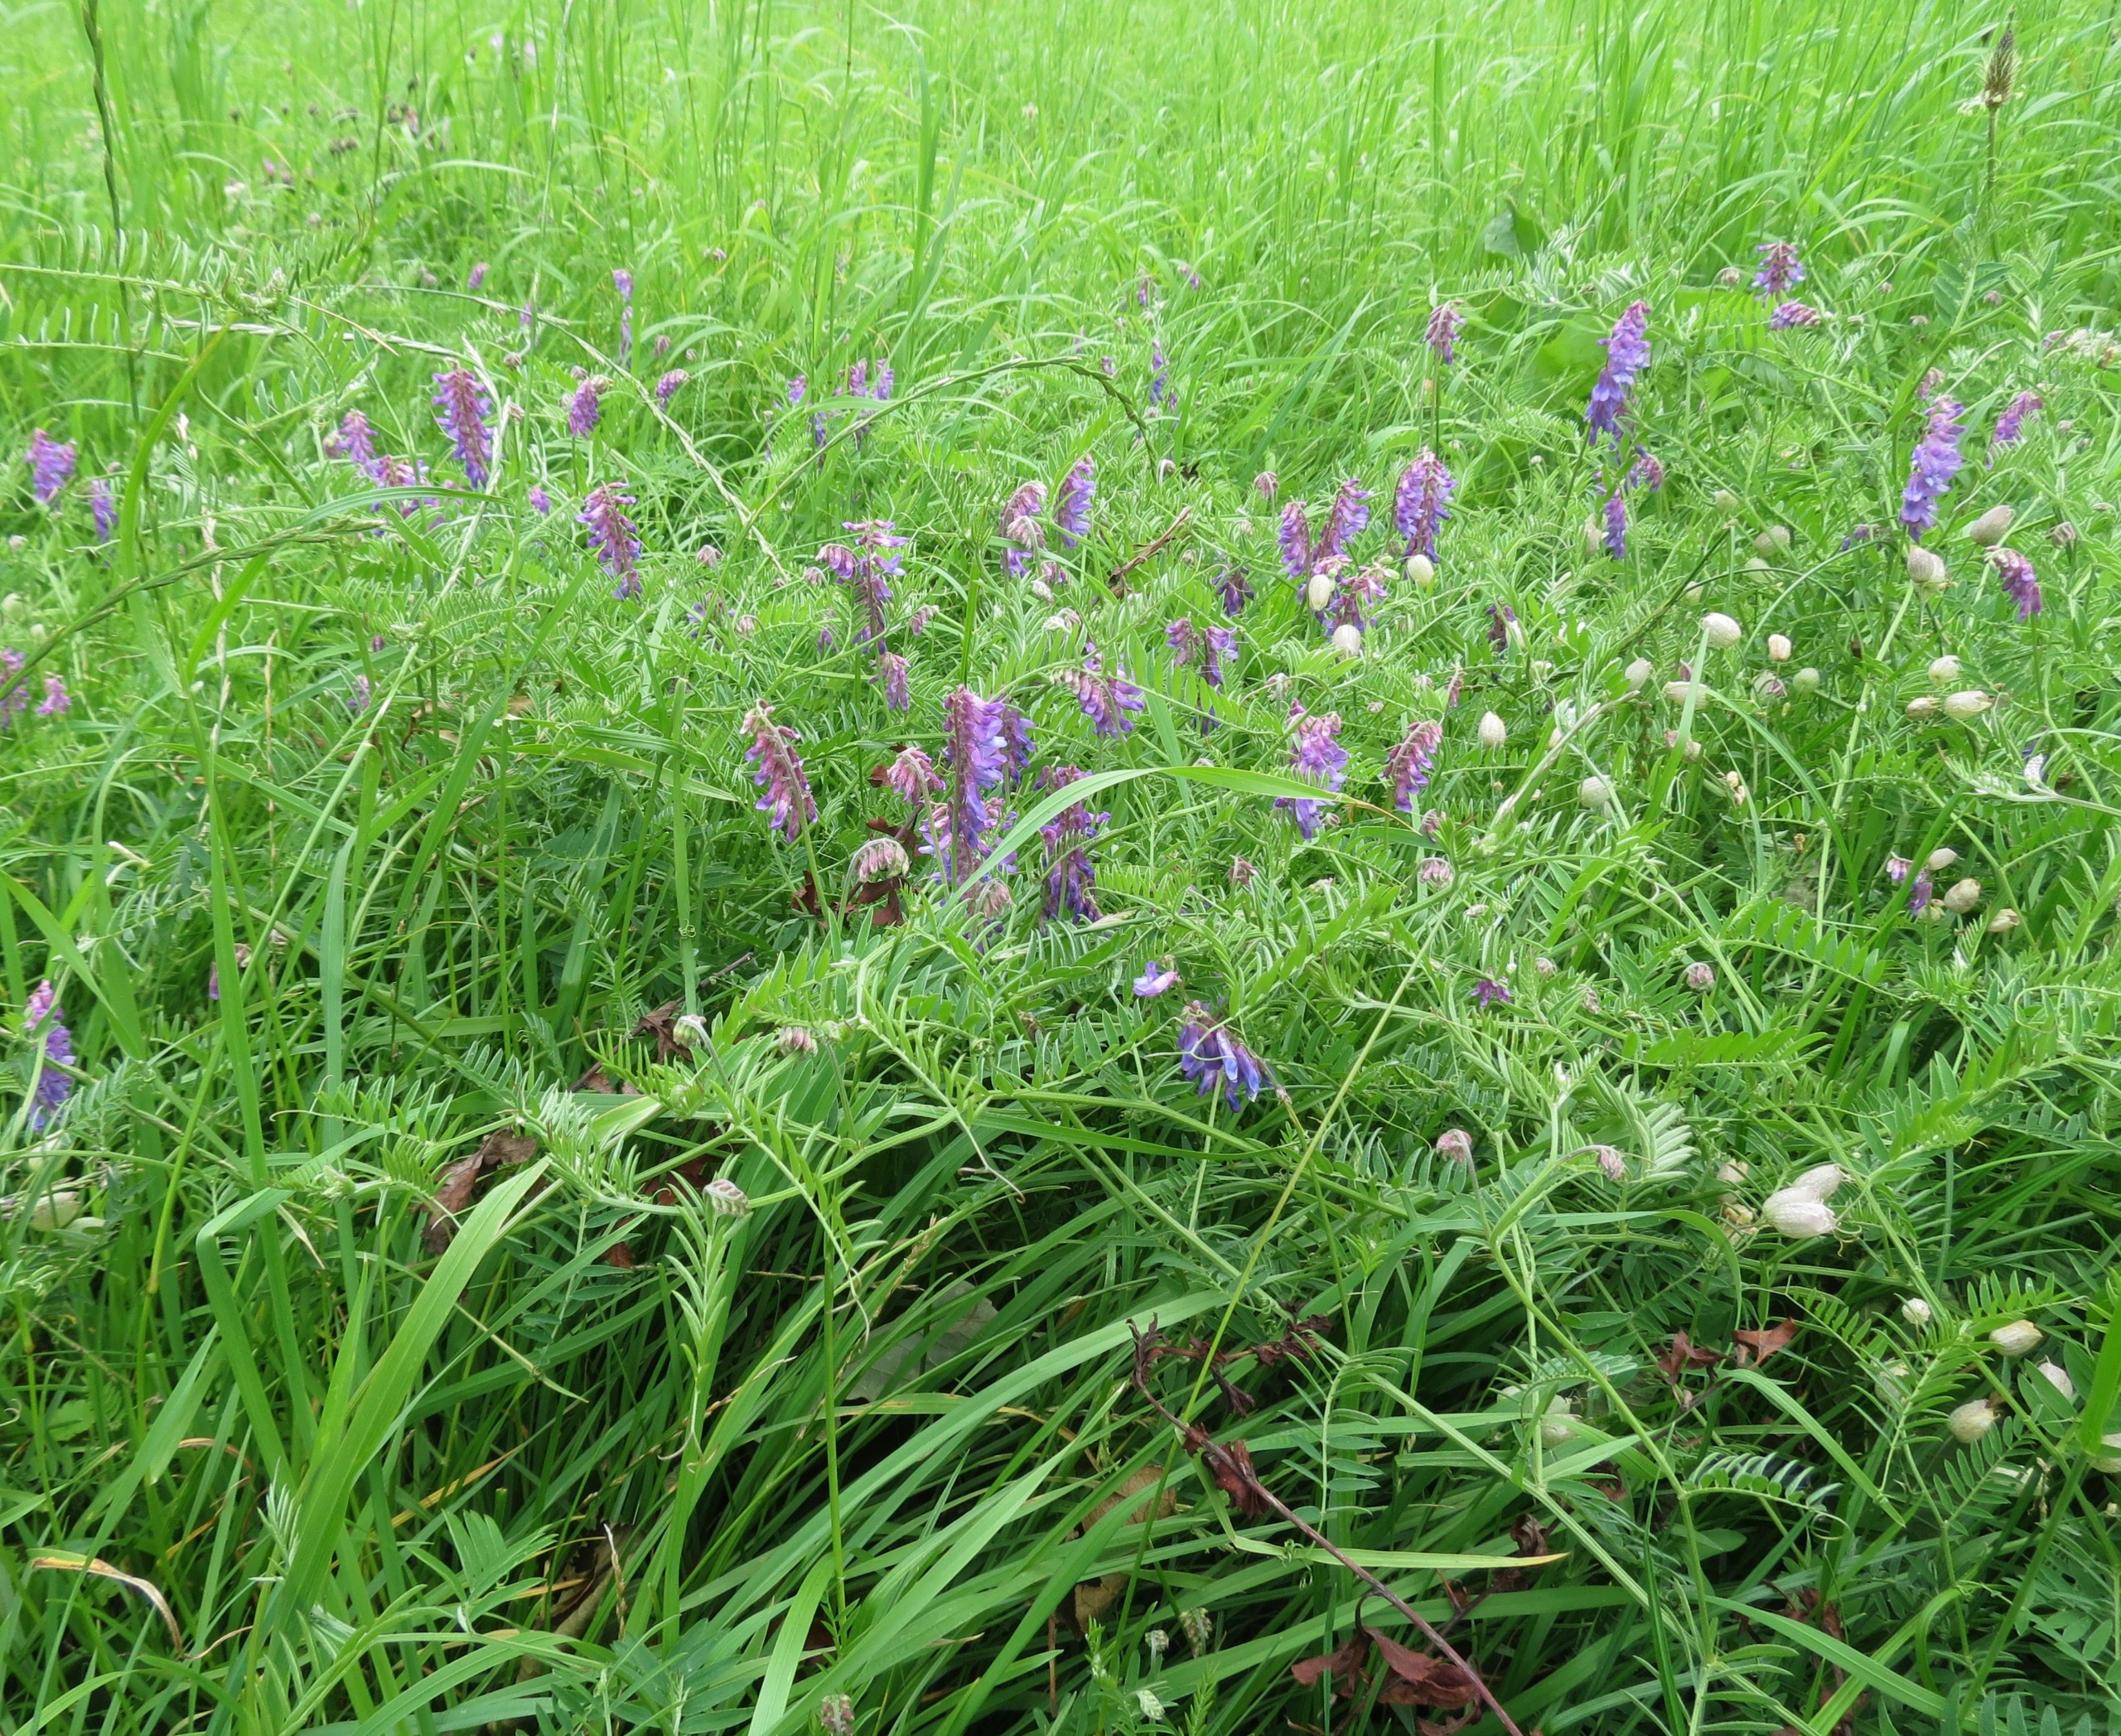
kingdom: Plantae
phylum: Tracheophyta
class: Magnoliopsida
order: Fabales
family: Fabaceae
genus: Vicia
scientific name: Vicia cracca
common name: Muse-vikke
